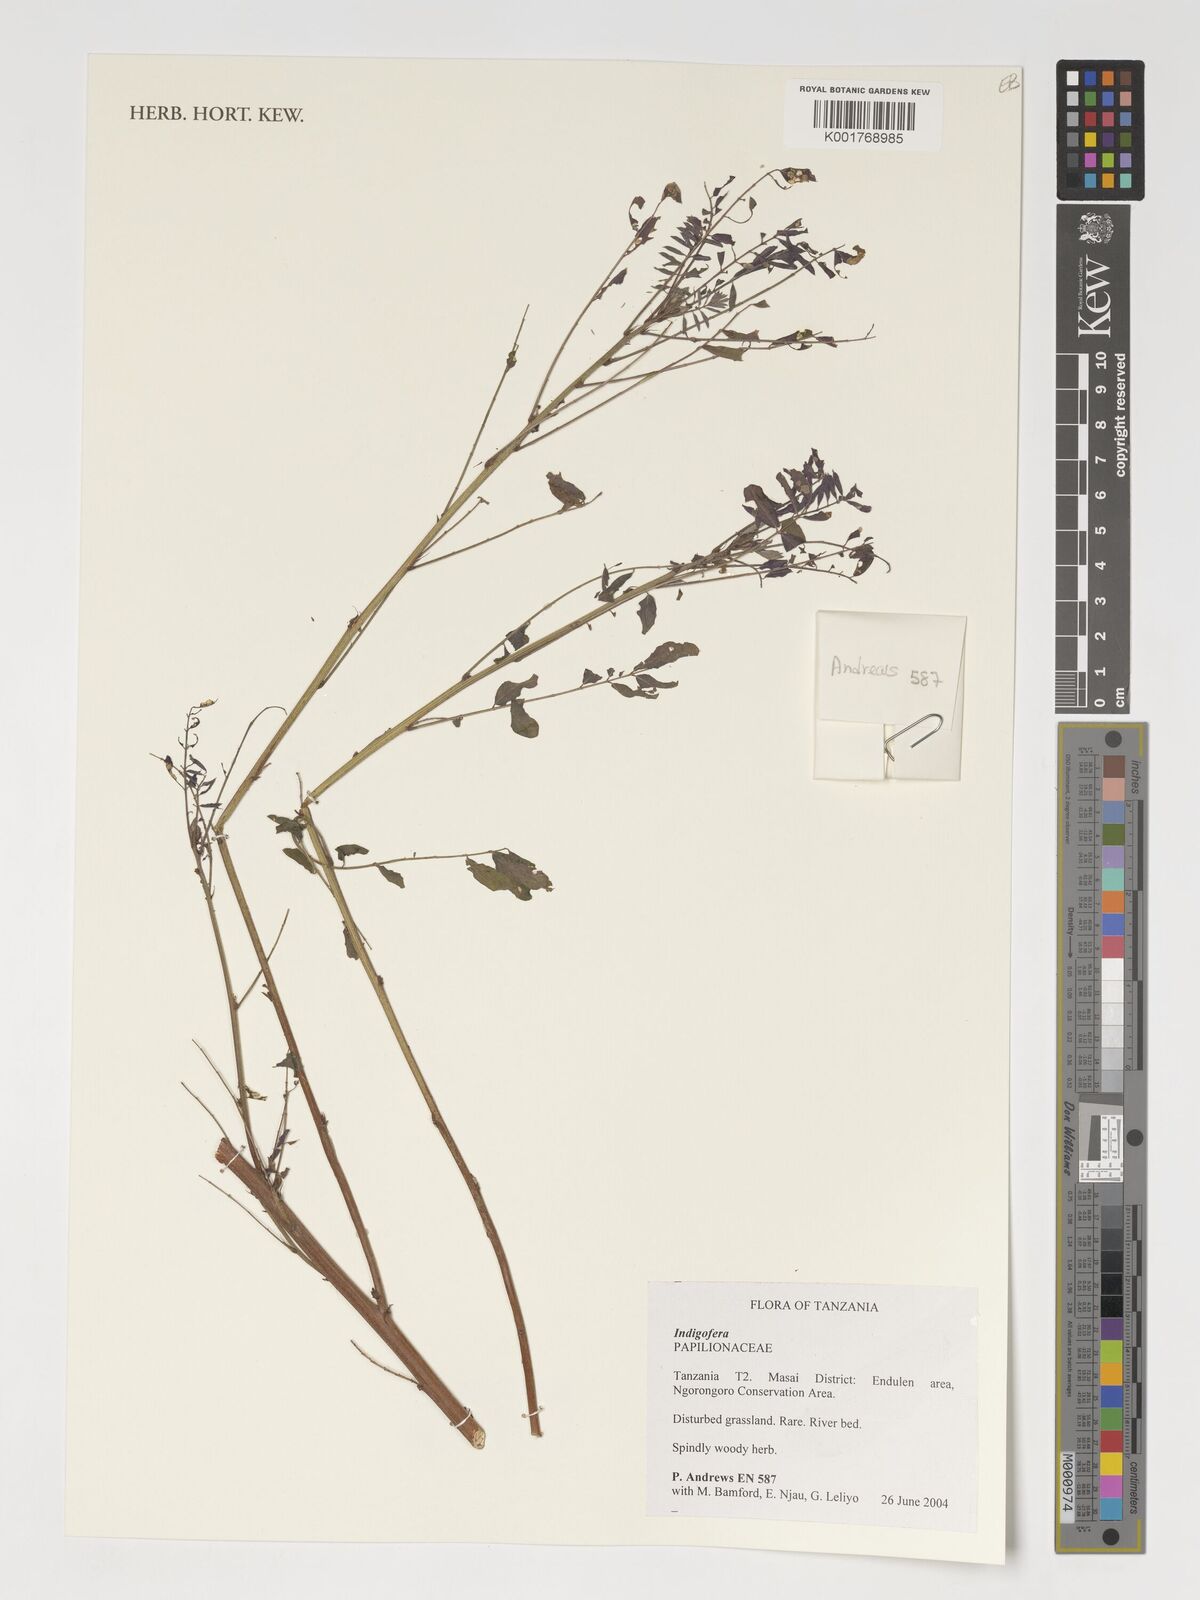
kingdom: Plantae
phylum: Tracheophyta
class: Magnoliopsida
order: Fabales
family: Fabaceae
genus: Indigofera
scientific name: Indigofera
